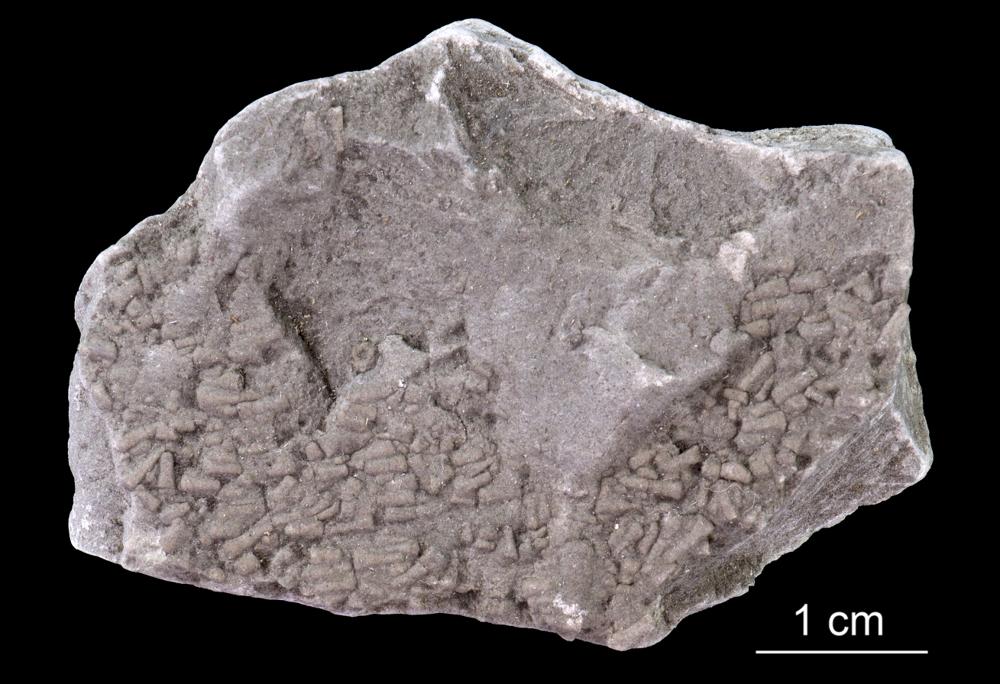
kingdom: Animalia
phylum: Annelida
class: Polychaeta
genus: Volborthella
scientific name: Volborthella tenuis
